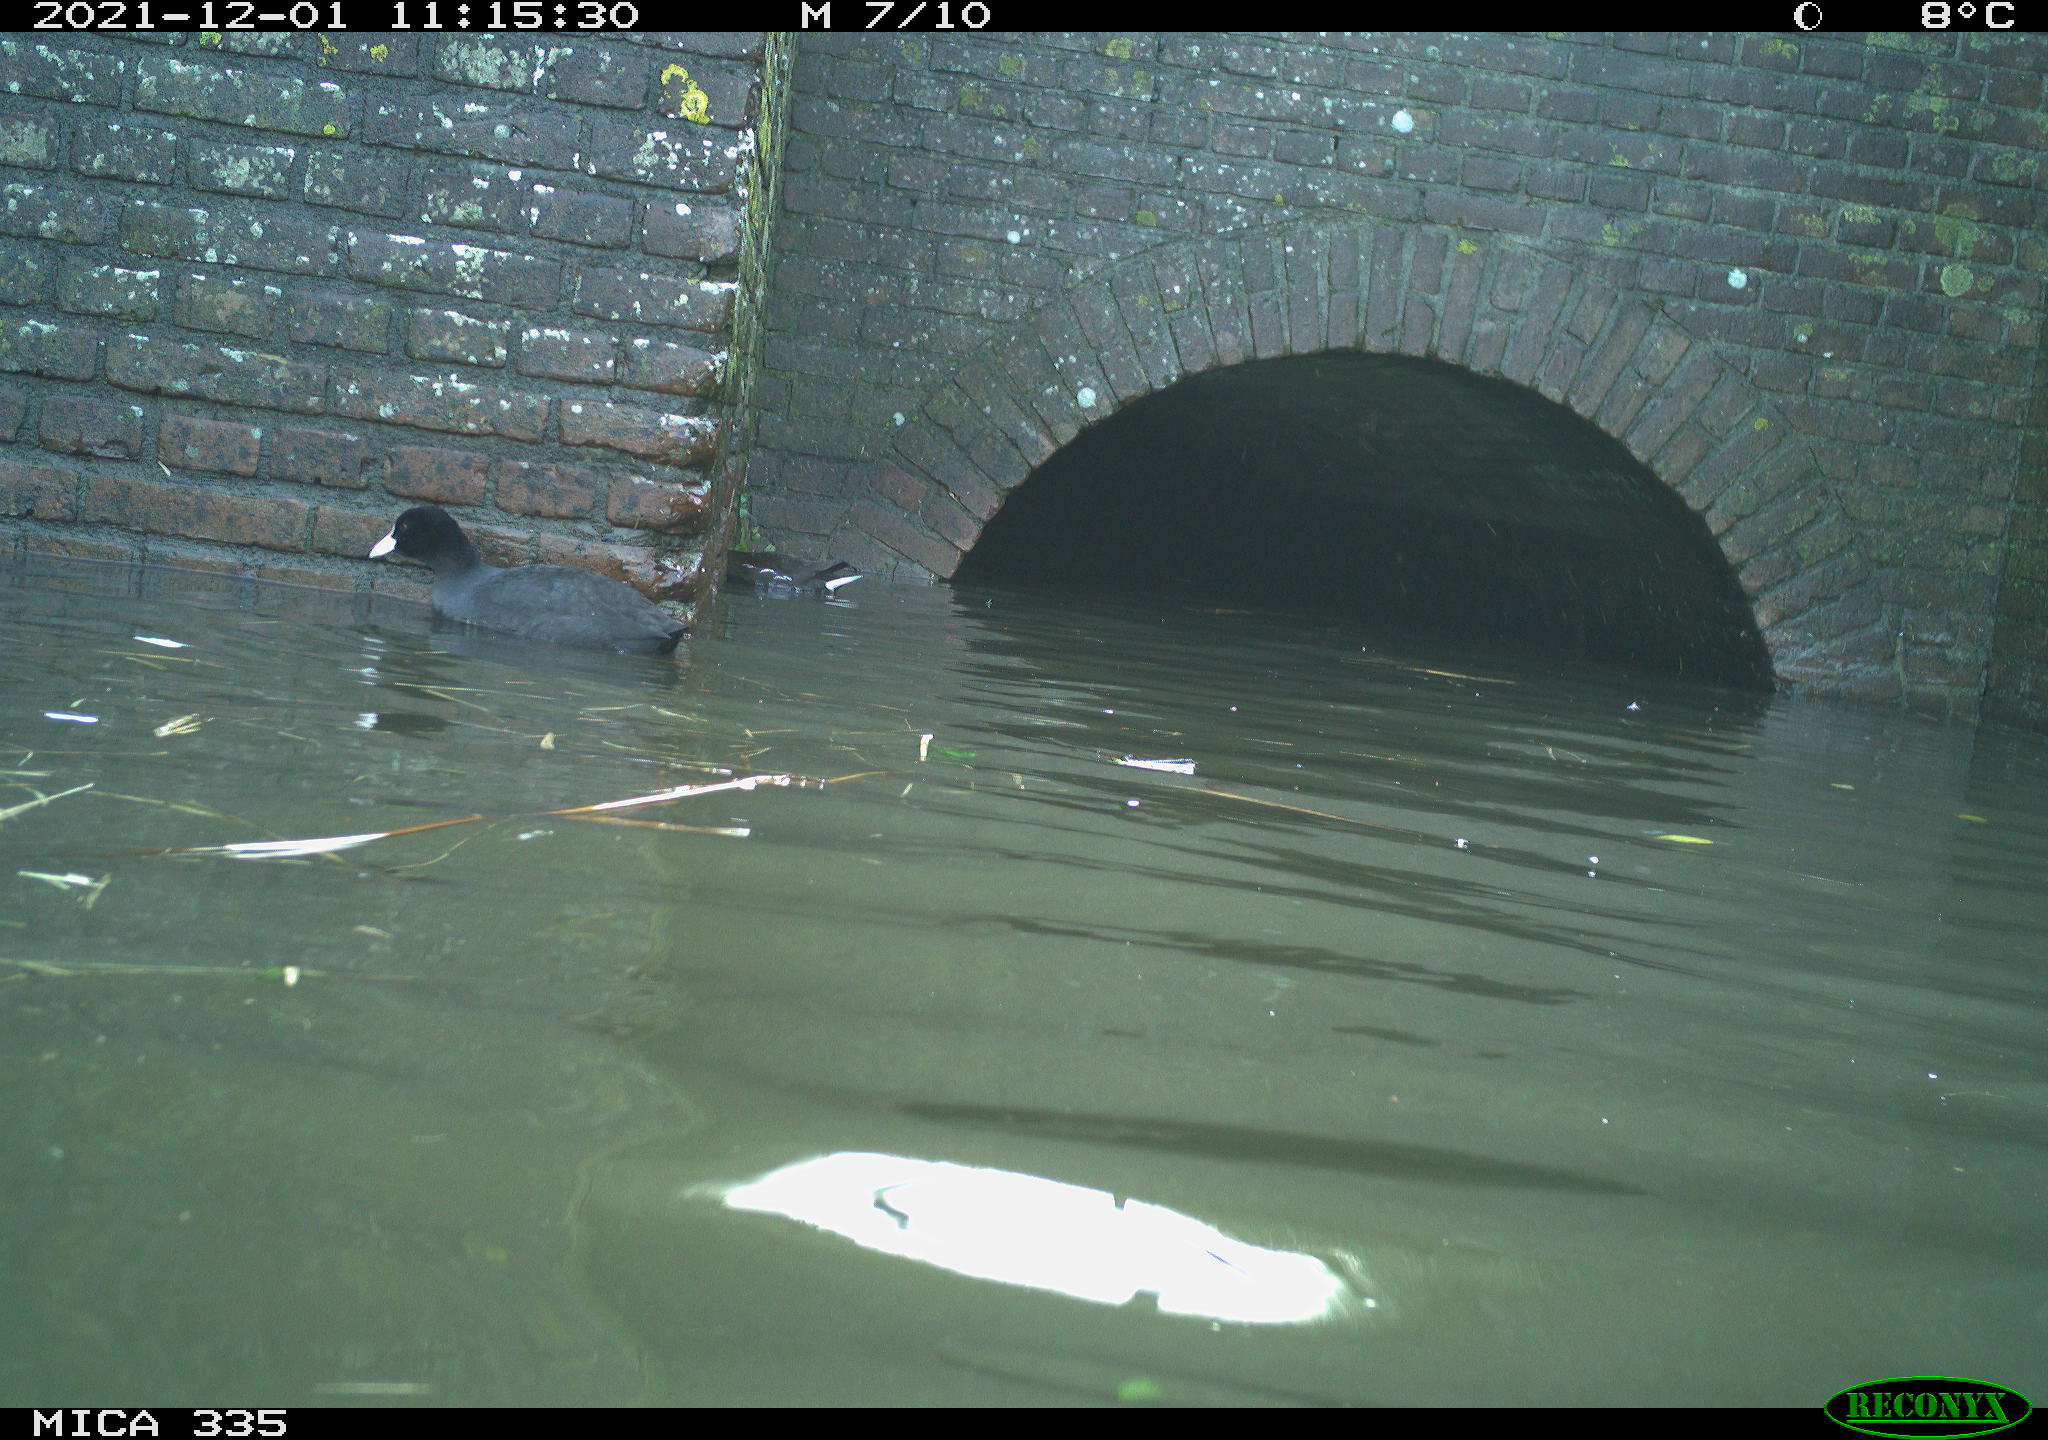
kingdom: Animalia
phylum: Chordata
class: Aves
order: Gruiformes
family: Rallidae
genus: Gallinula
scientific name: Gallinula chloropus
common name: Common moorhen
